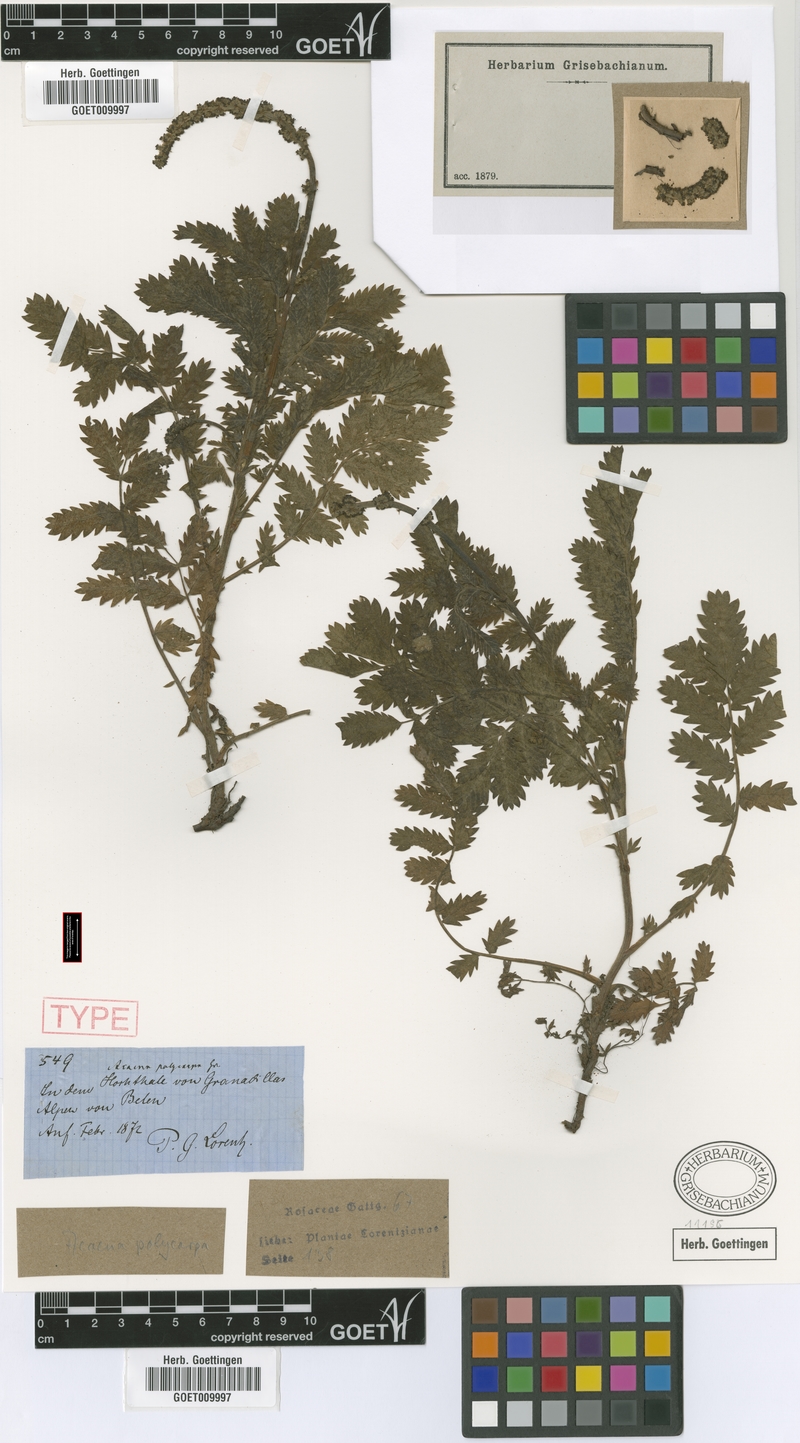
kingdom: Plantae
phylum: Tracheophyta
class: Magnoliopsida
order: Rosales
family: Rosaceae
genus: Acaena
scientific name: Acaena stricta
